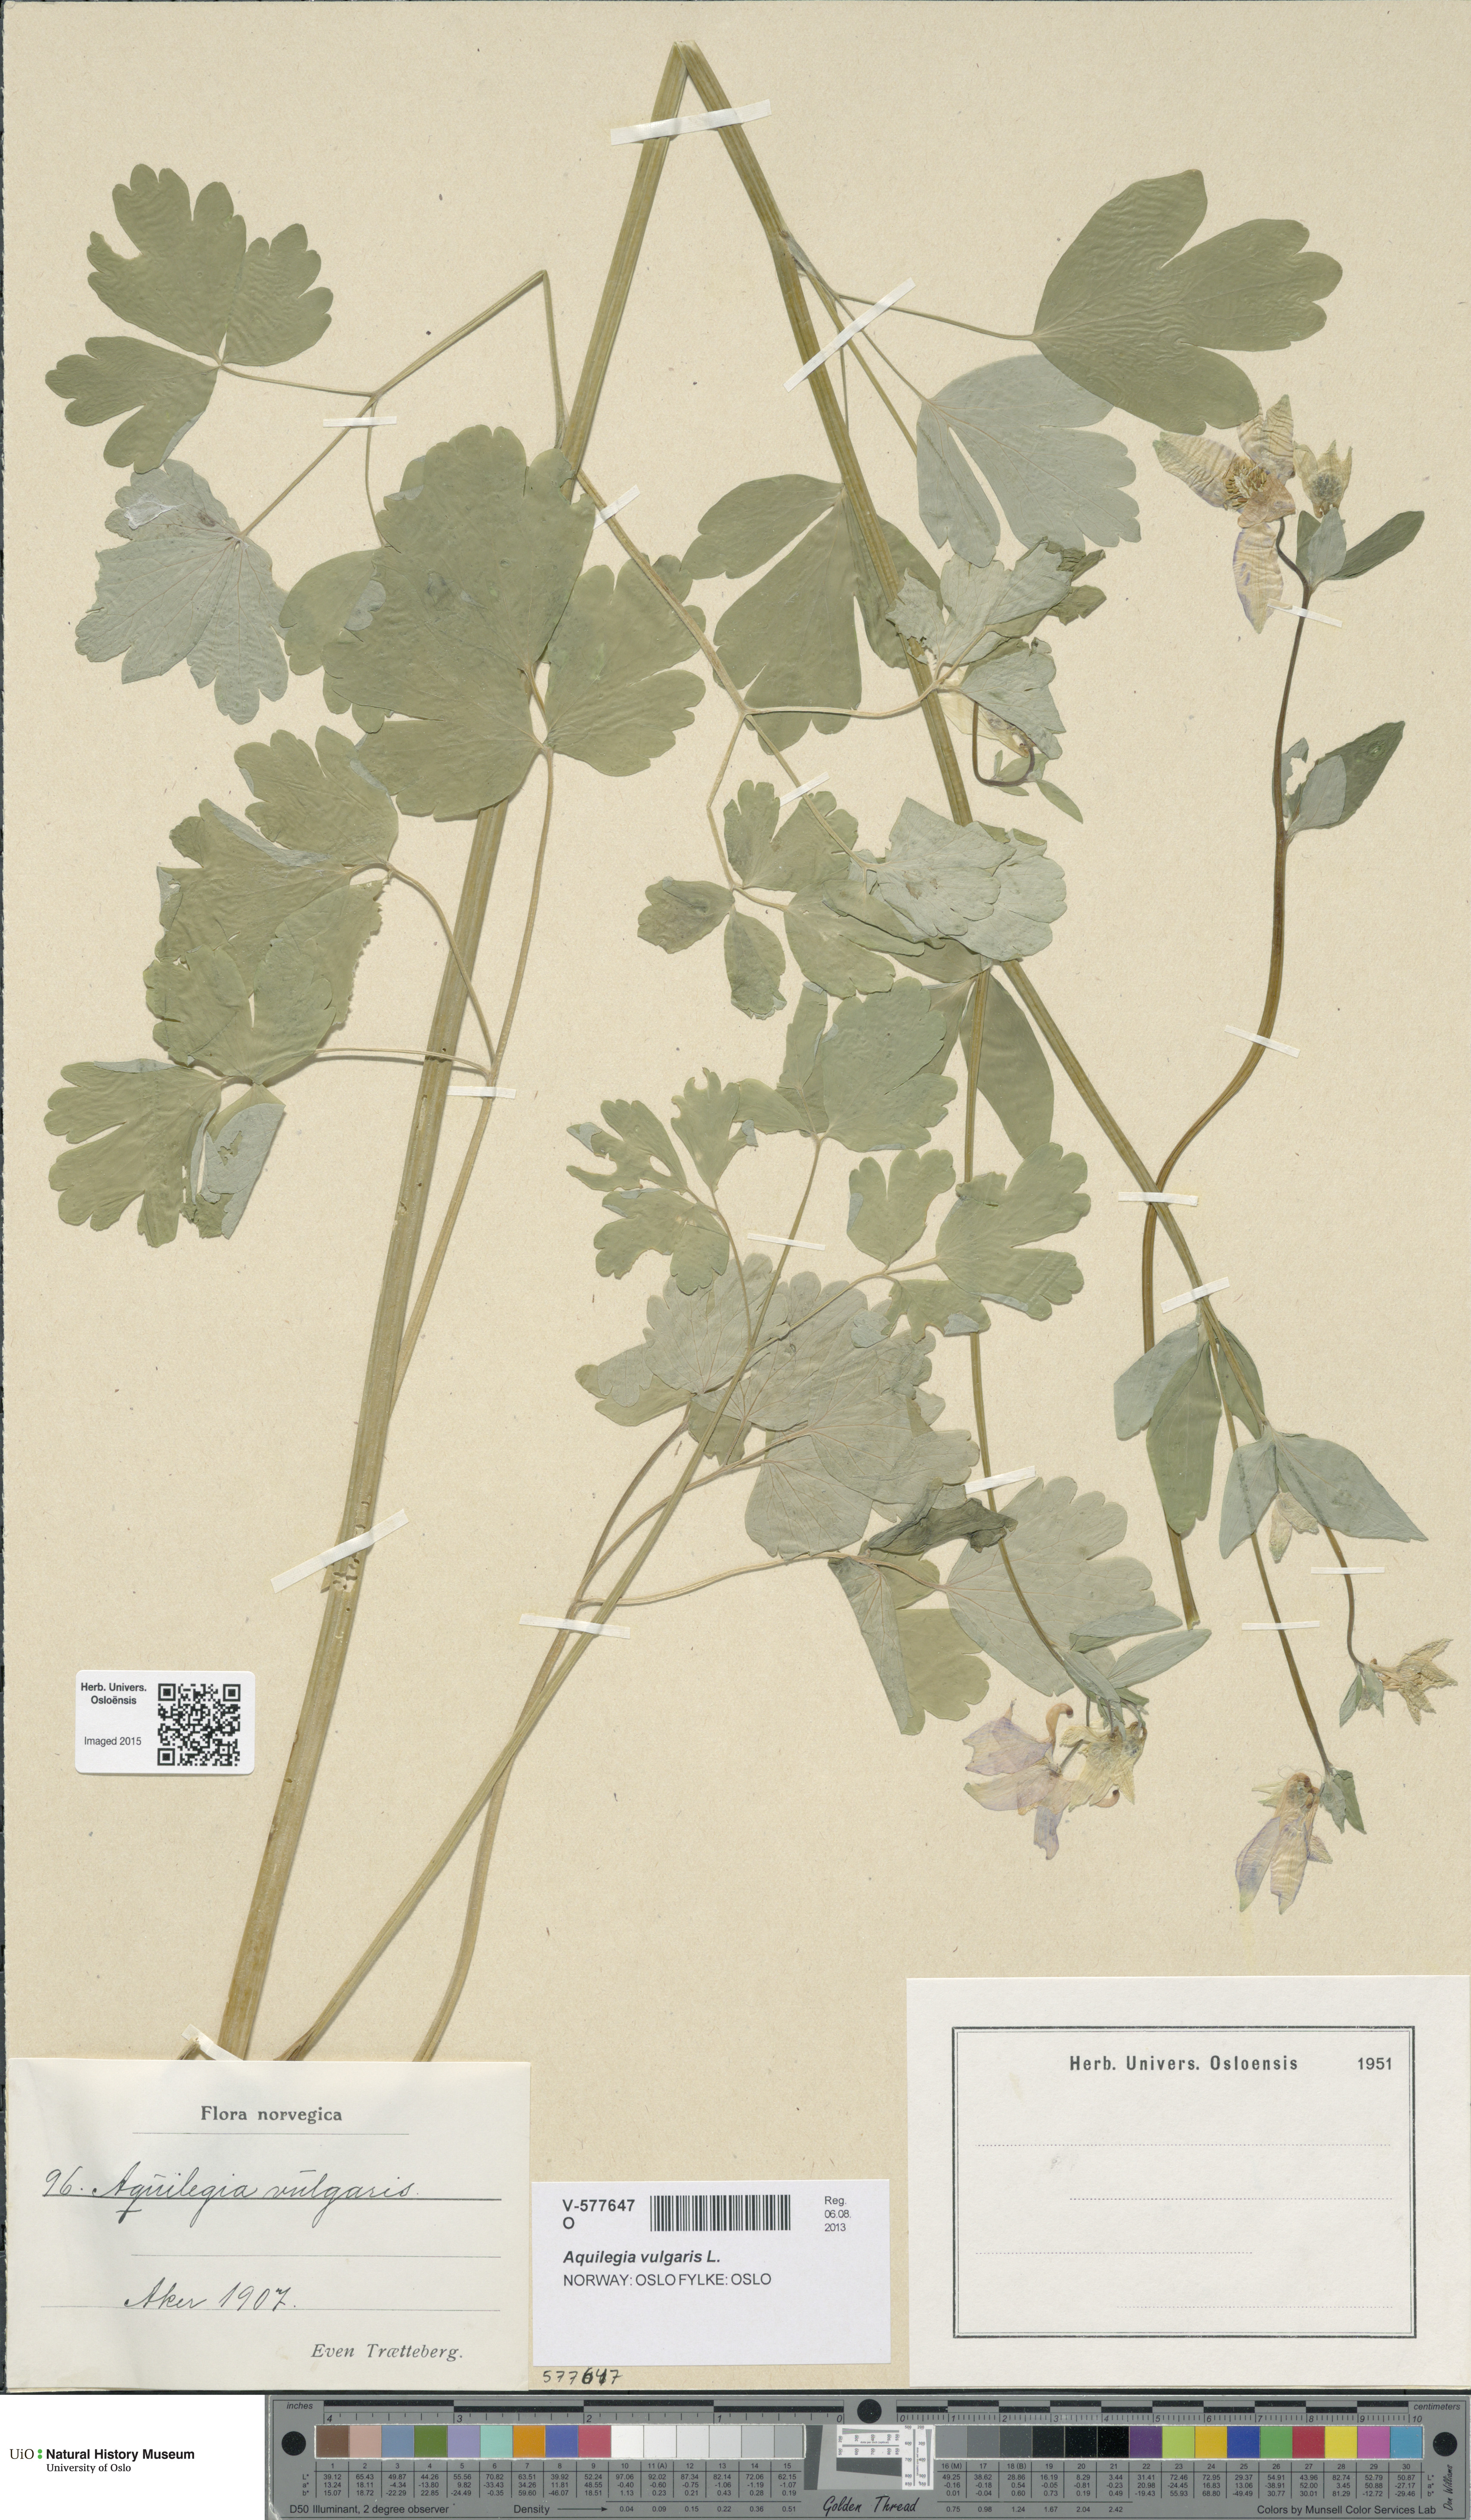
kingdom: Plantae
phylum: Tracheophyta
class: Magnoliopsida
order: Ranunculales
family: Ranunculaceae
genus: Aquilegia
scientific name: Aquilegia vulgaris
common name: Columbine
